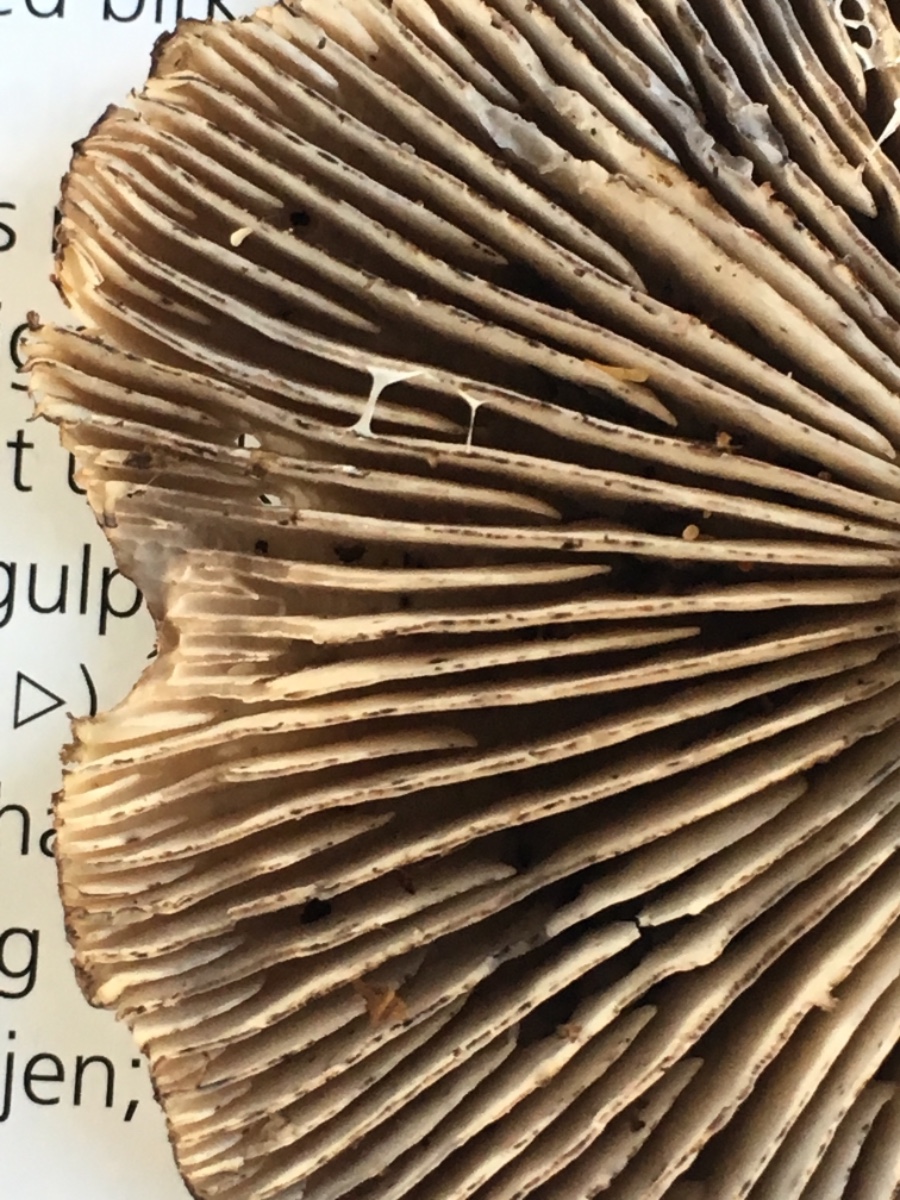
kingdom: Fungi
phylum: Basidiomycota
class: Agaricomycetes
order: Agaricales
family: Tricholomataceae
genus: Tricholoma
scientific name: Tricholoma sciodes
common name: stribet ridderhat
